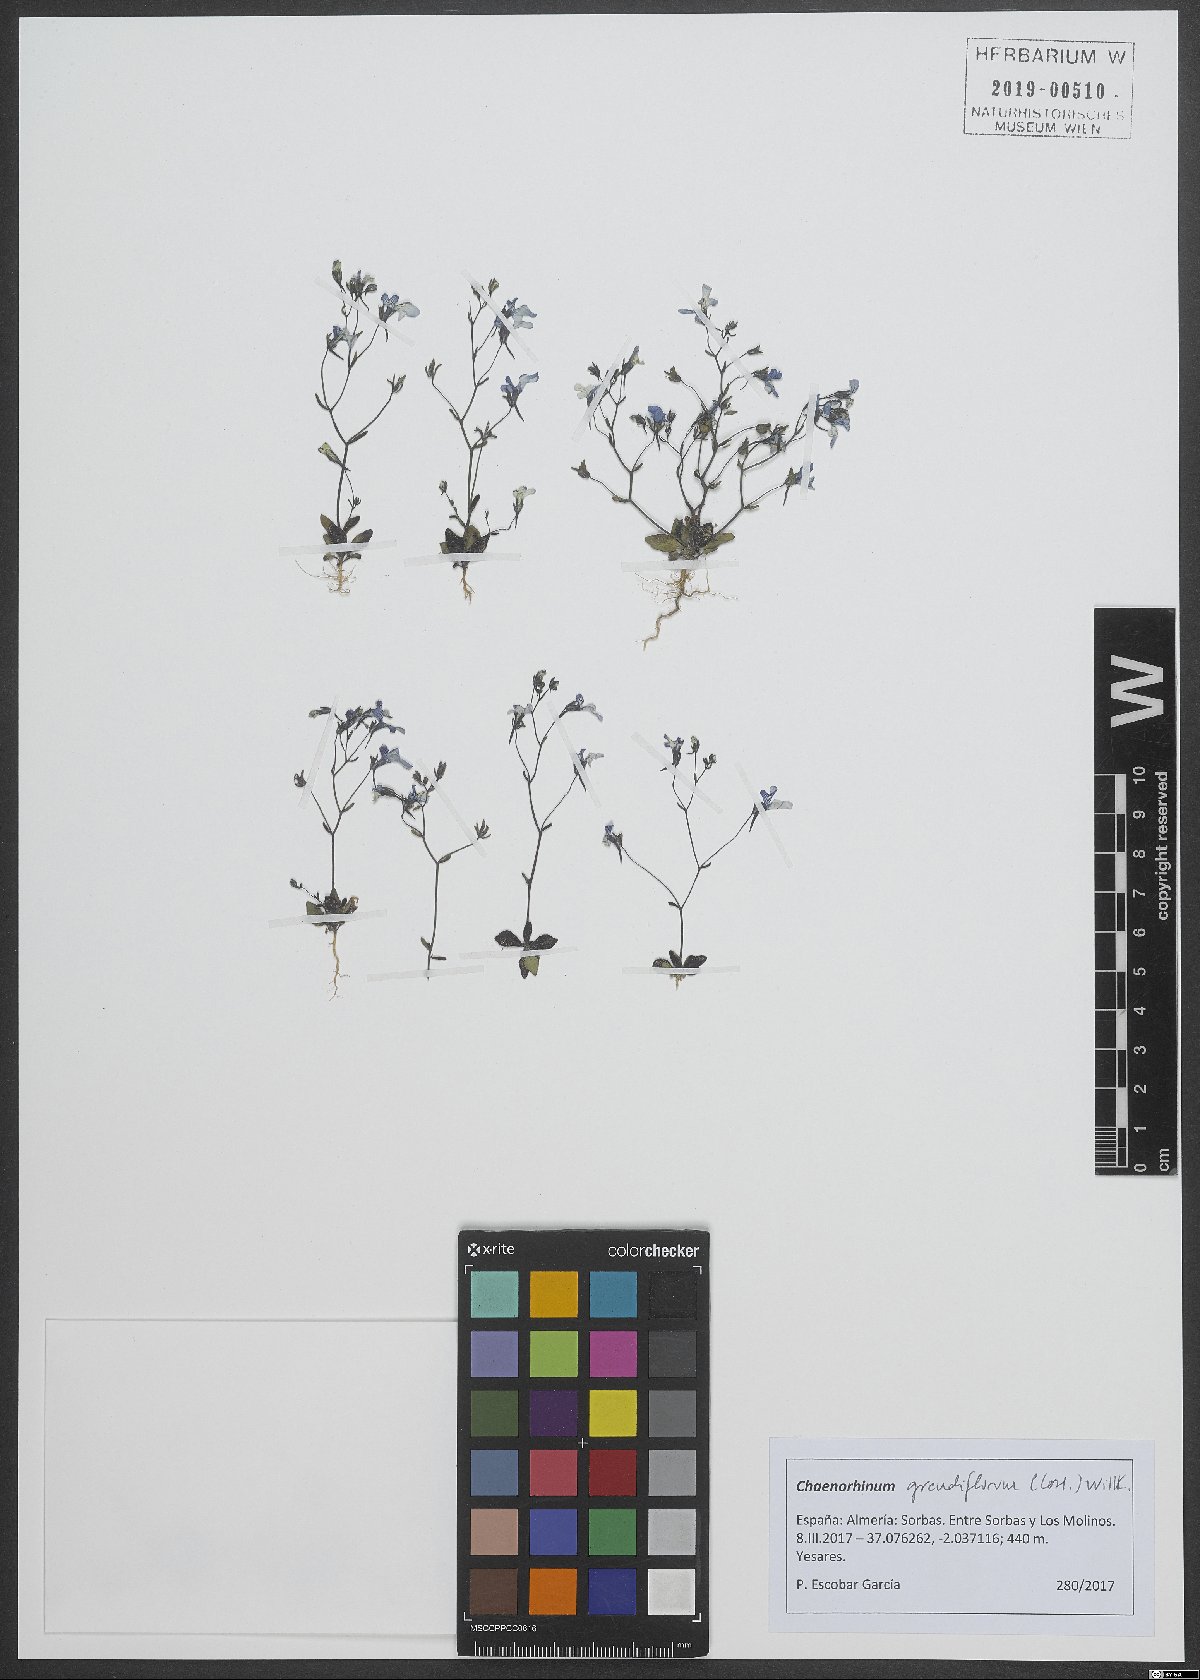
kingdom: Plantae
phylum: Tracheophyta
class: Magnoliopsida
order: Lamiales
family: Plantaginaceae
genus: Chaenorhinum
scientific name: Chaenorhinum grandiflorum
